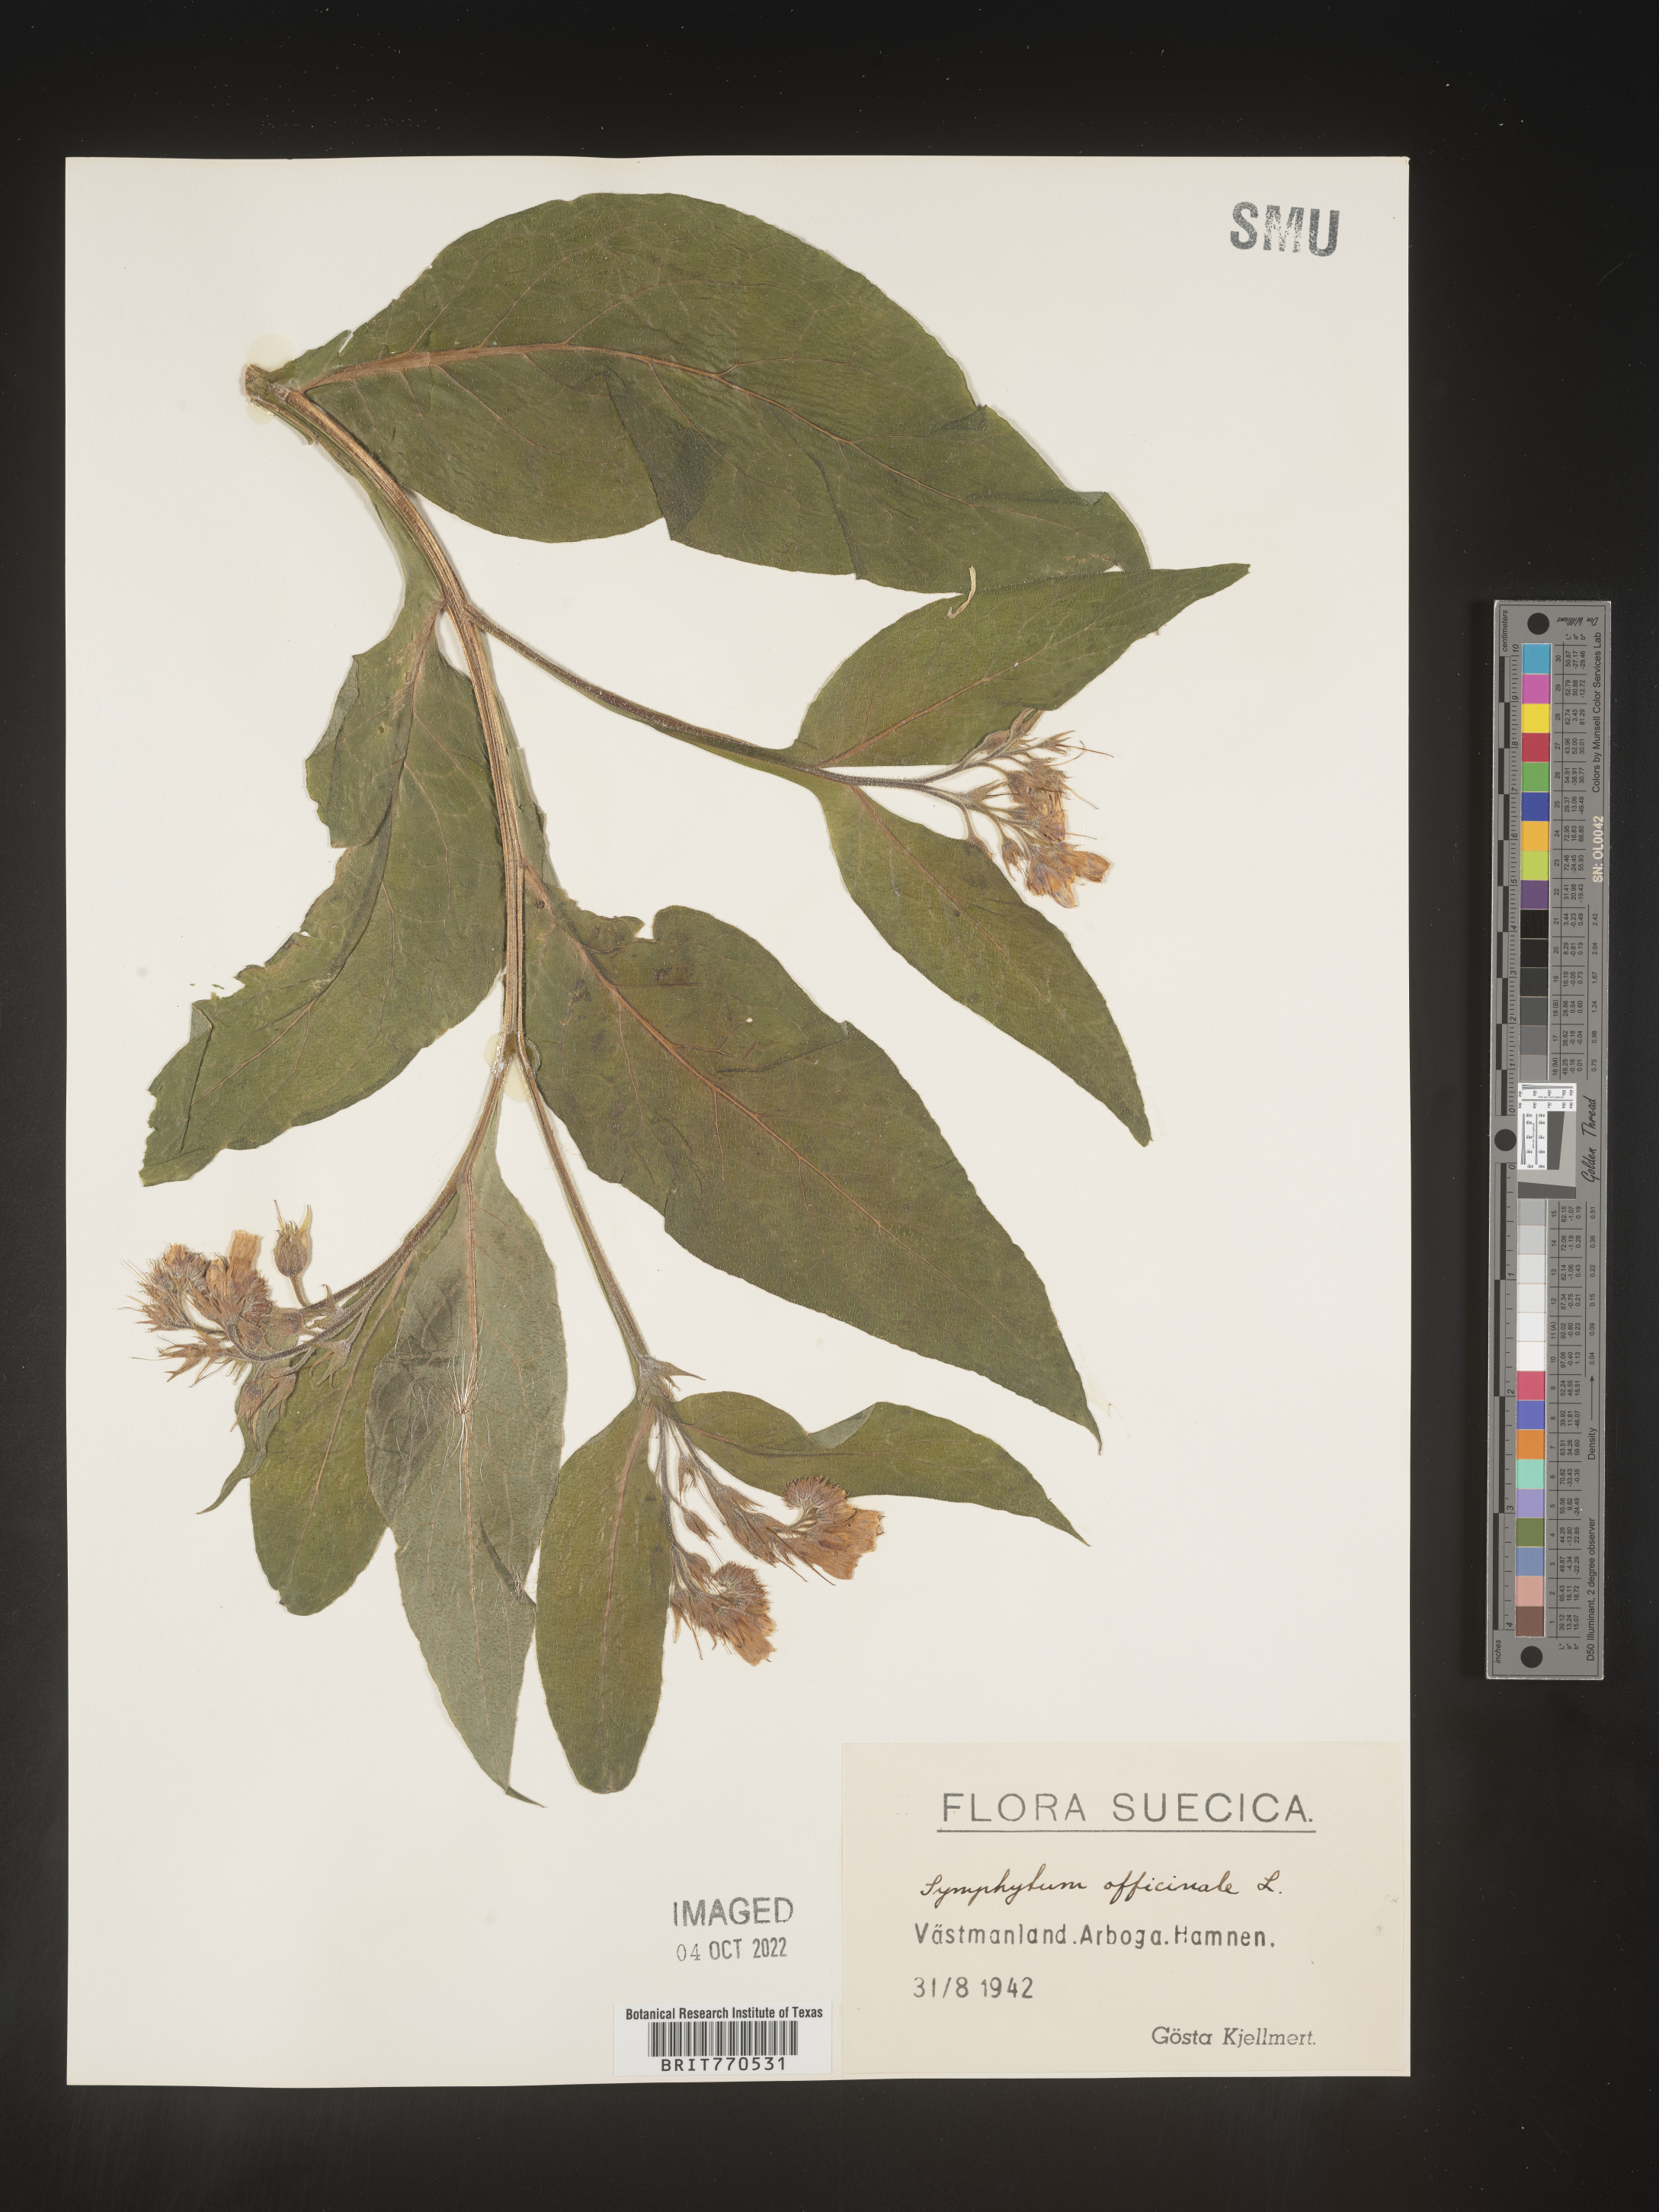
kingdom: Plantae
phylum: Tracheophyta
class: Magnoliopsida
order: Boraginales
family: Boraginaceae
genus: Symphytum
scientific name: Symphytum
